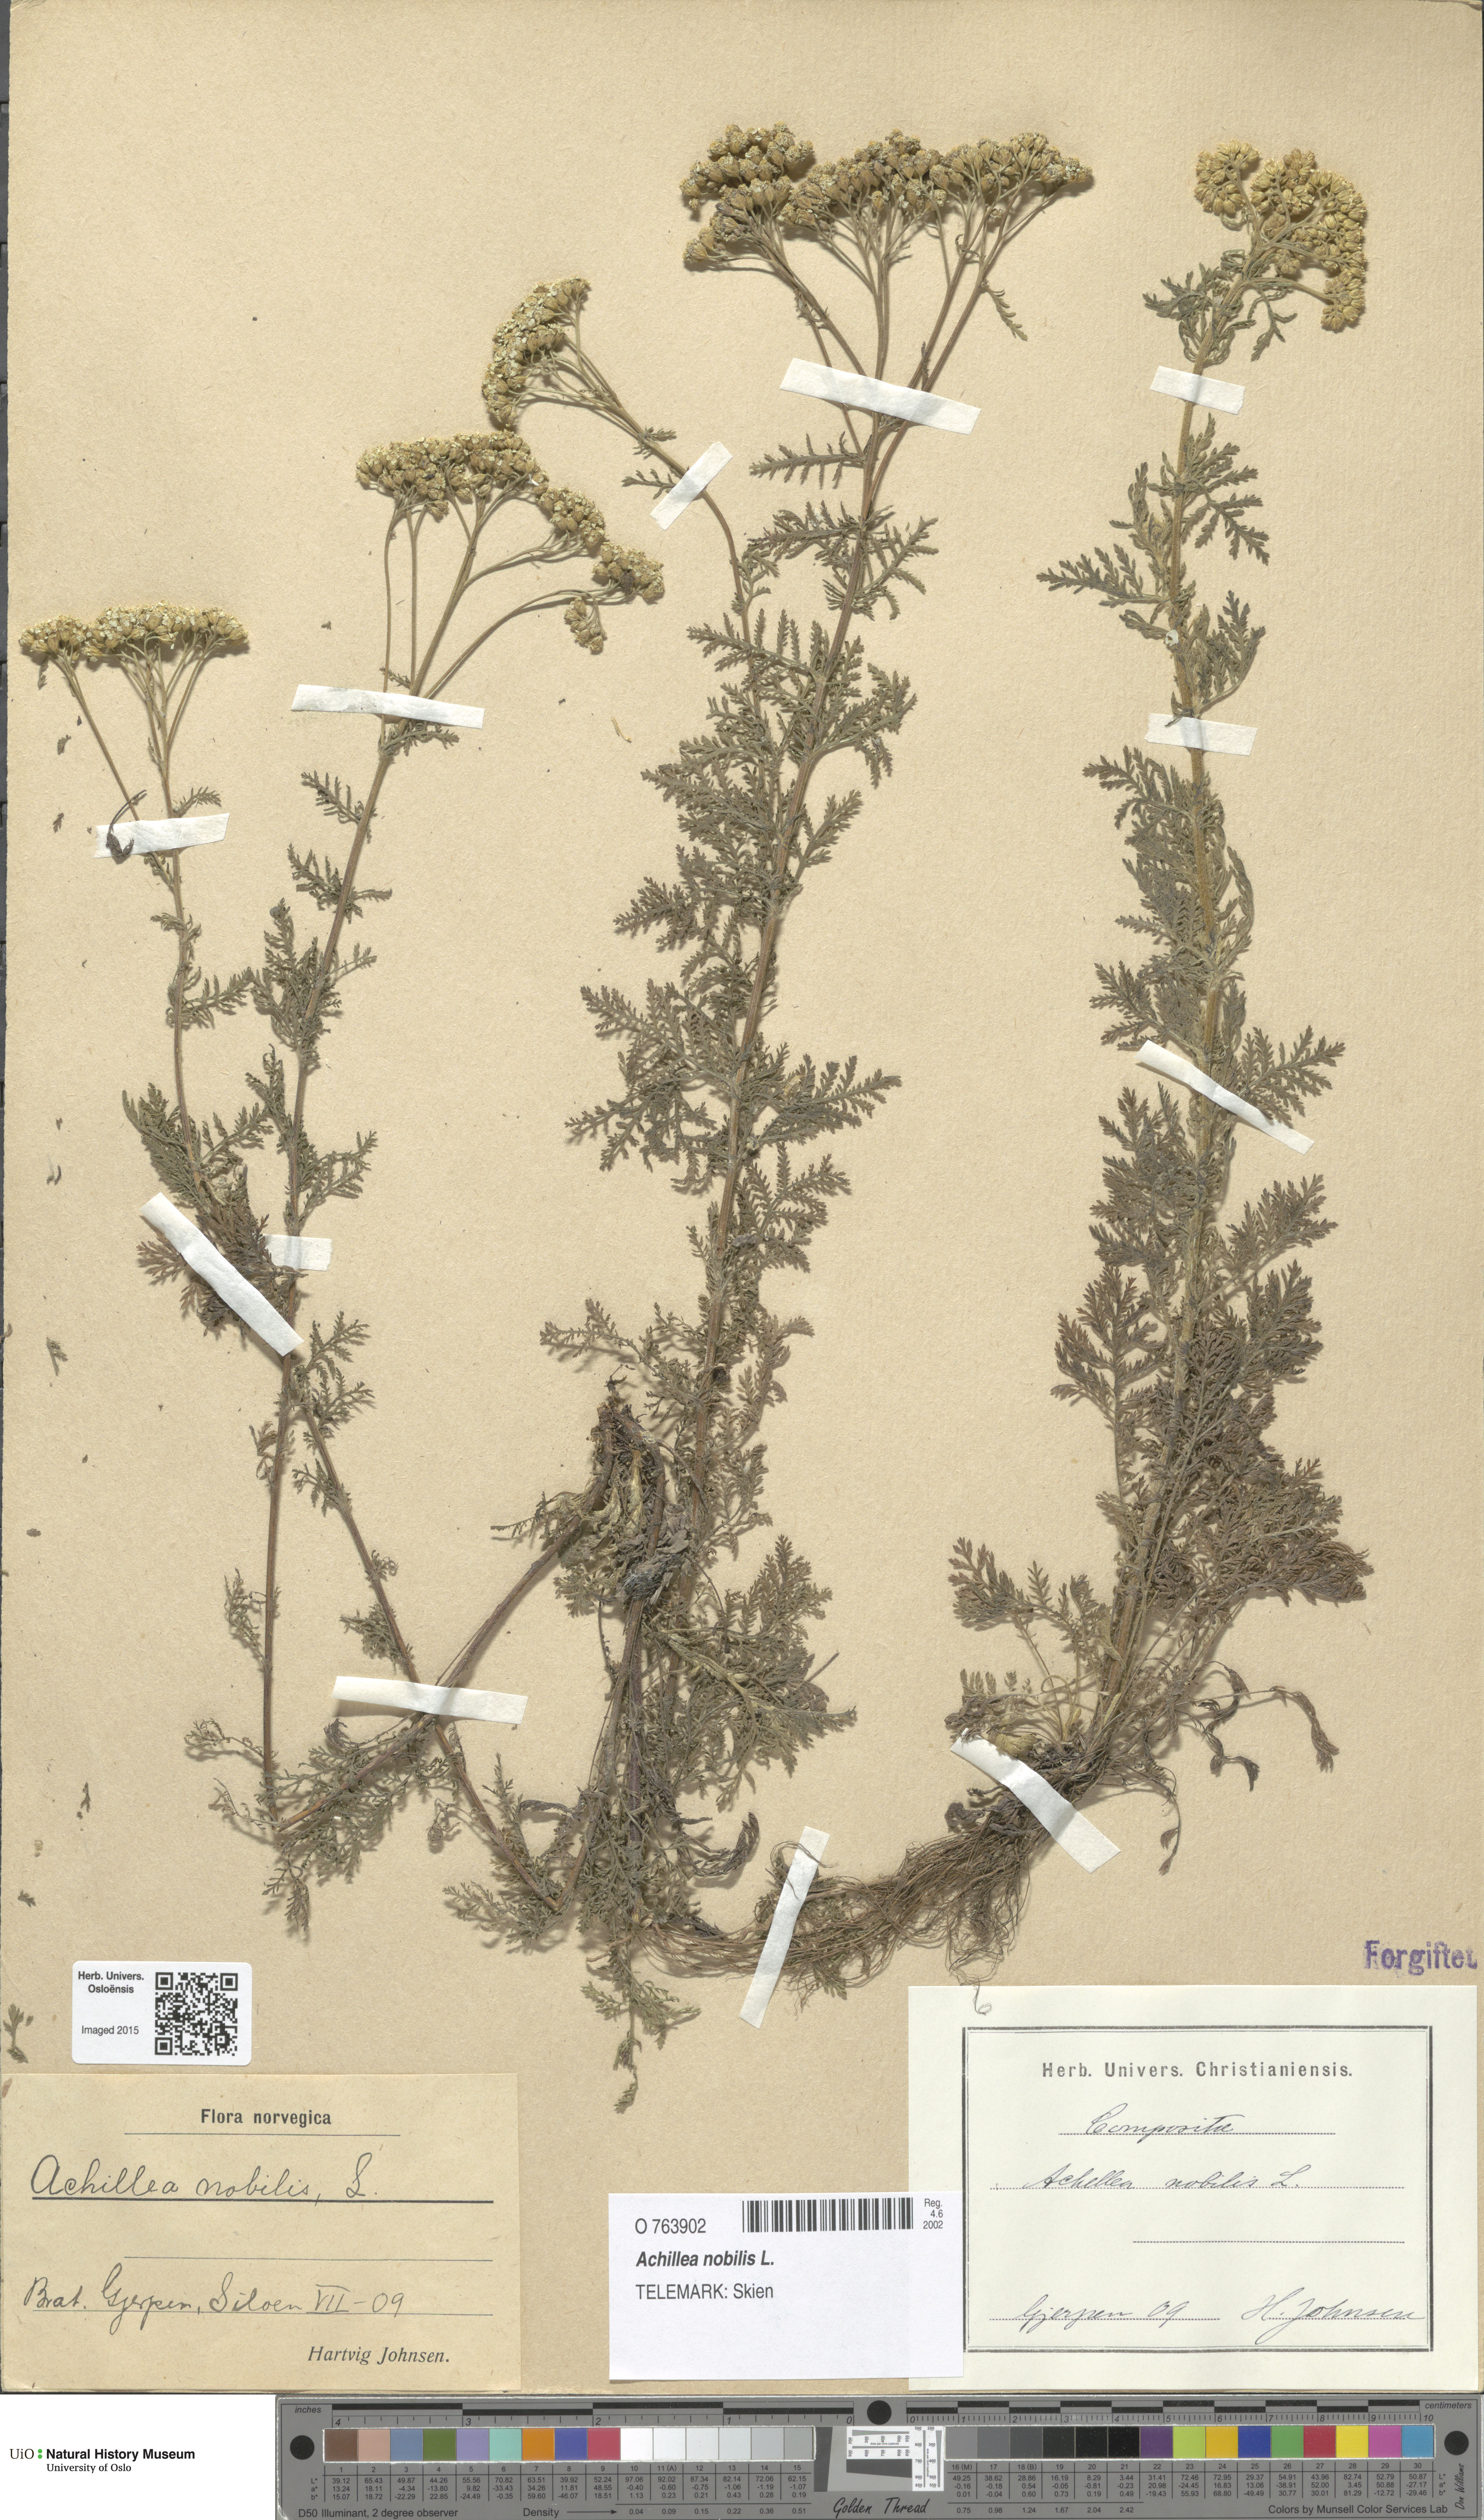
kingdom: Plantae
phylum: Tracheophyta
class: Magnoliopsida
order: Asterales
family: Asteraceae
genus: Achillea
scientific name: Achillea nobilis
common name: Noble yarrow
